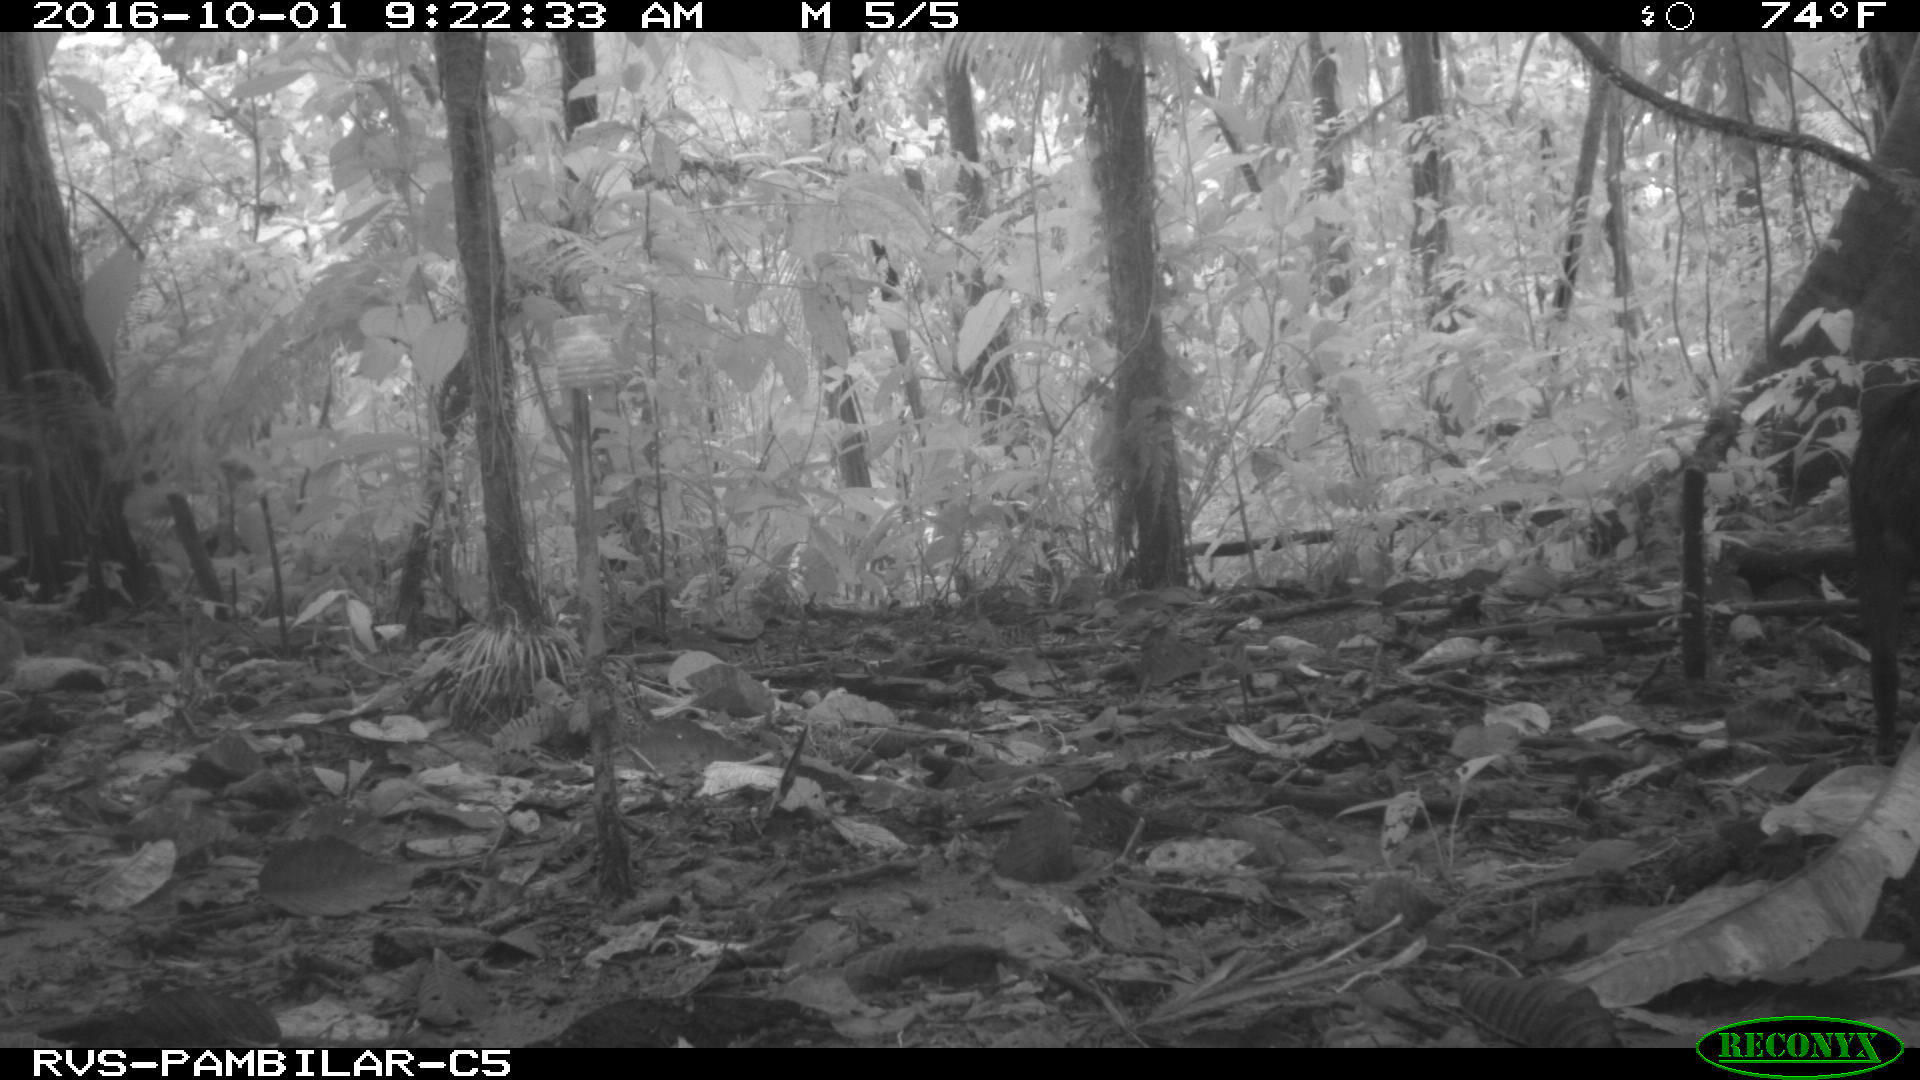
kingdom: Animalia
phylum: Chordata
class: Mammalia
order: Artiodactyla
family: Tayassuidae
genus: Tayassu
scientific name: Tayassu pecari
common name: White-lipped peccary
